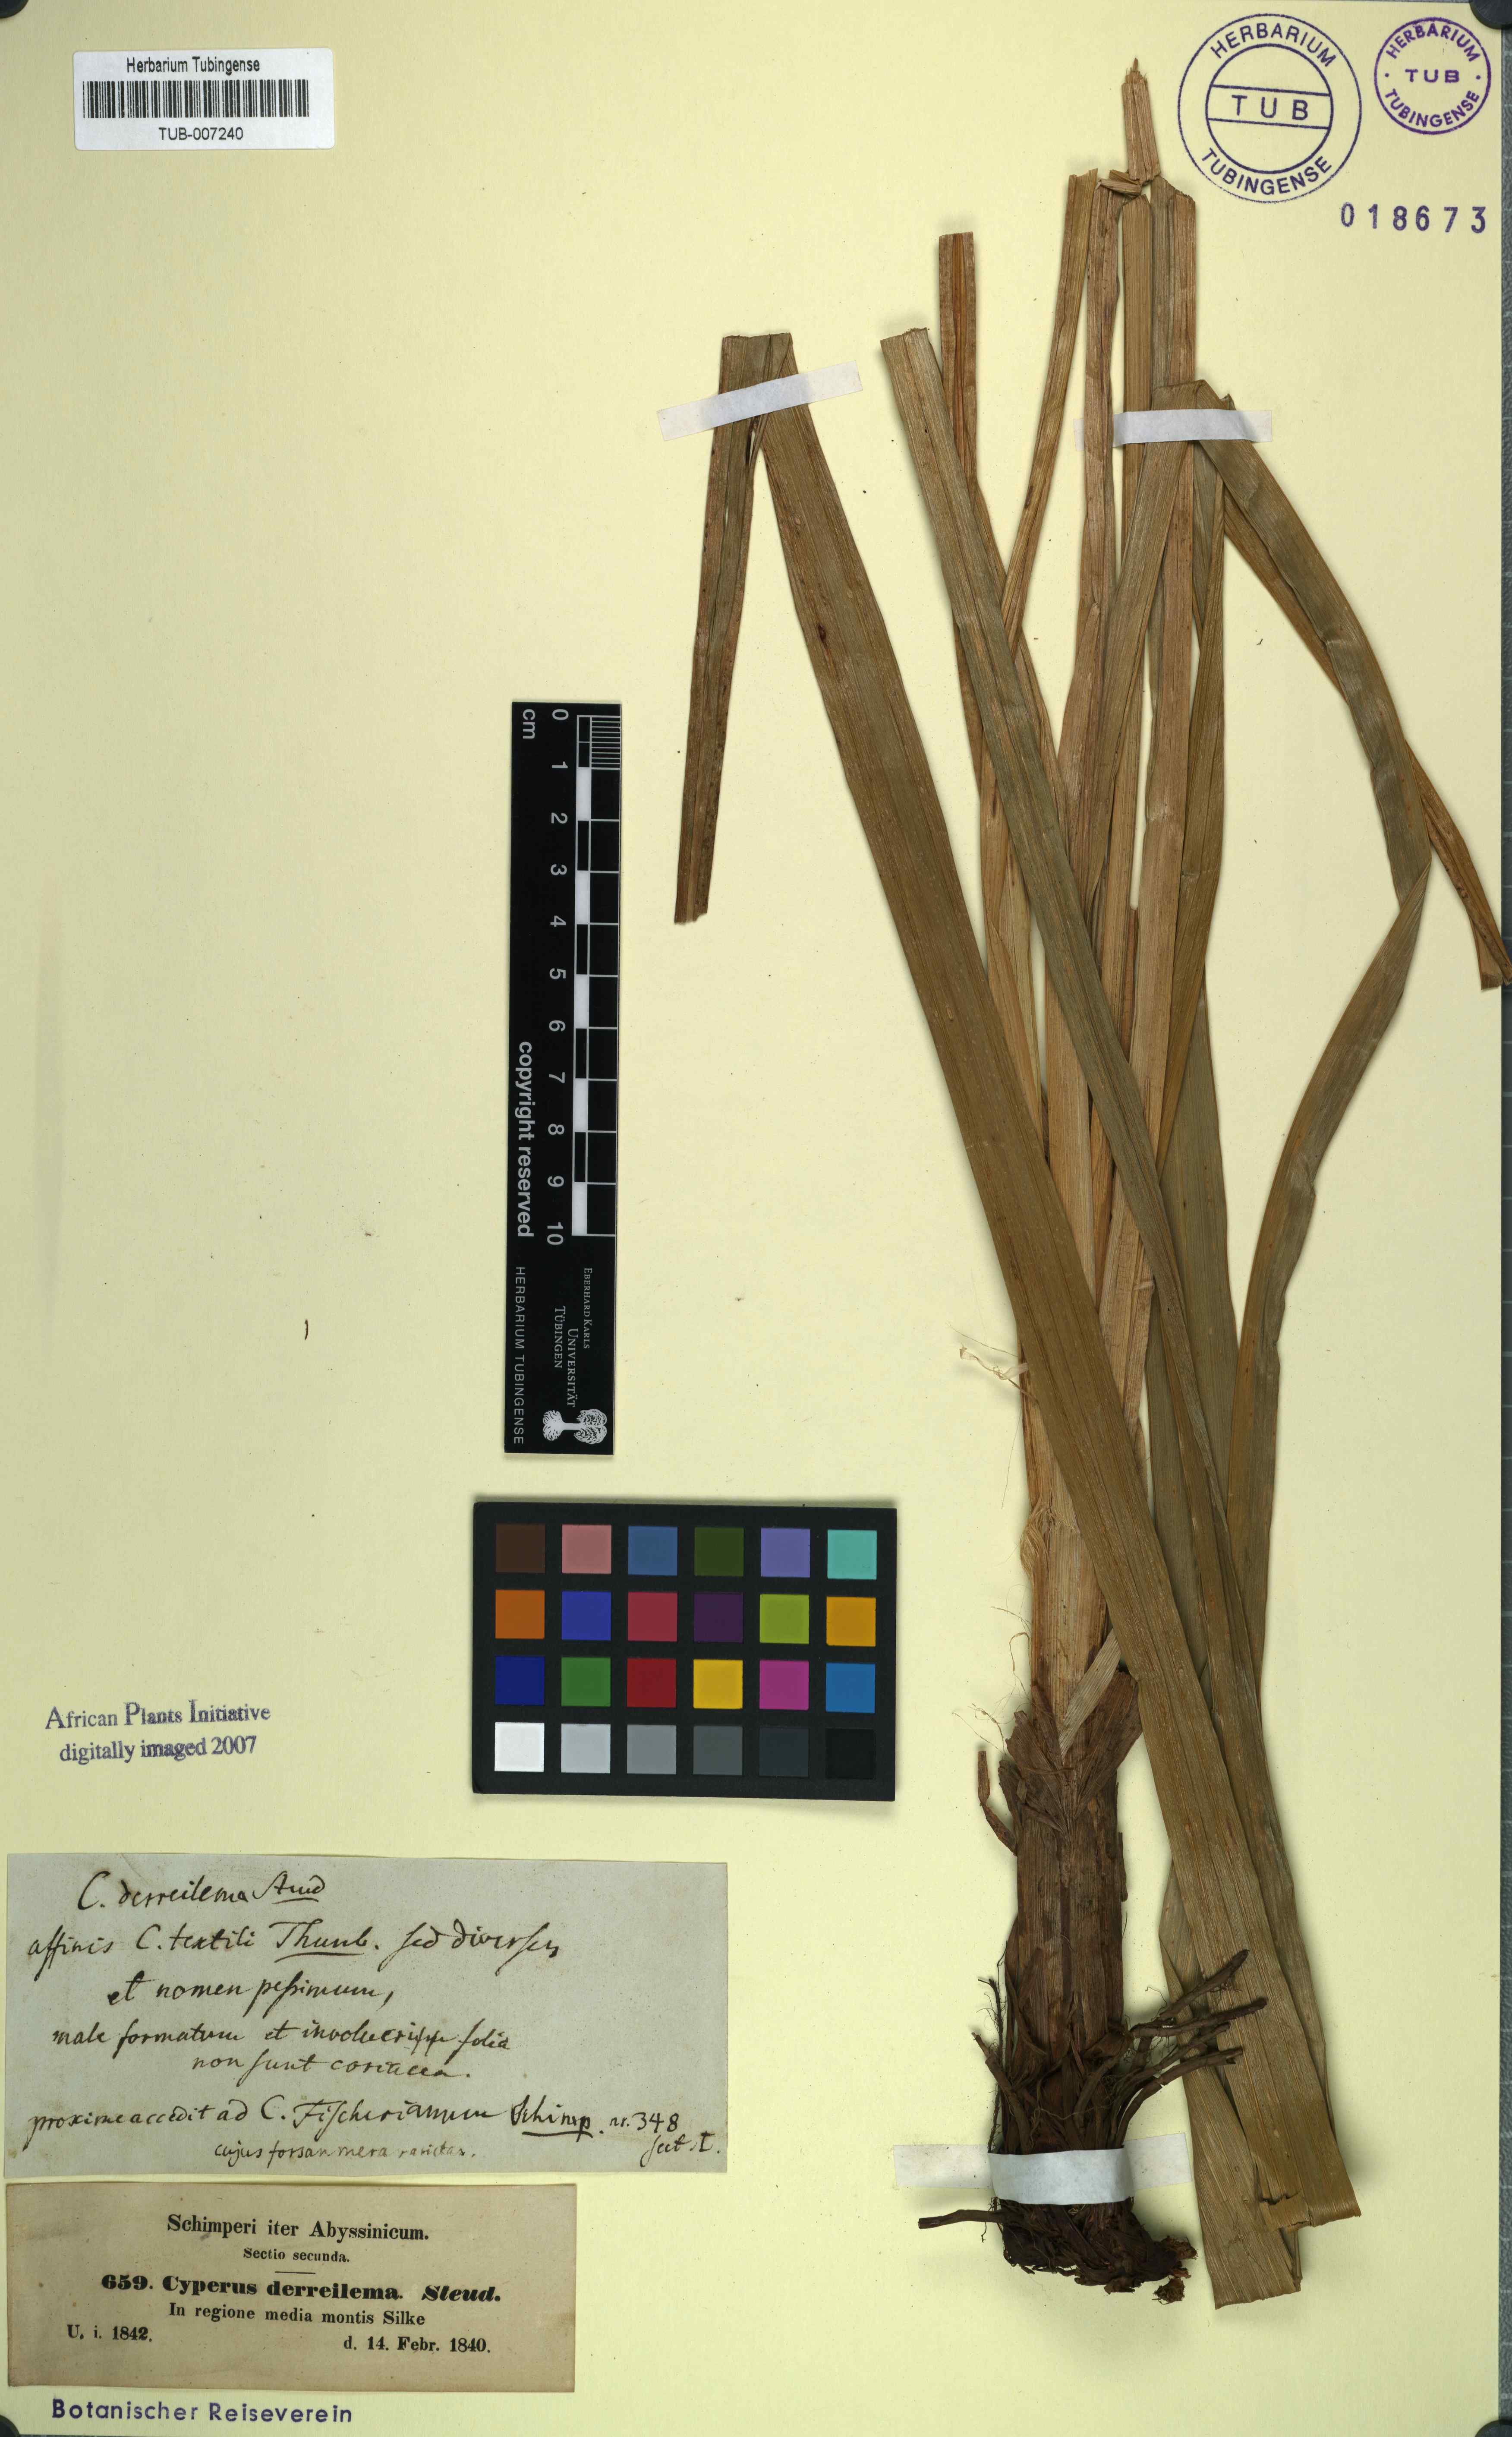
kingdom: Plantae
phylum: Tracheophyta
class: Liliopsida
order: Poales
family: Cyperaceae
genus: Cyperus
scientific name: Cyperus derreilema
